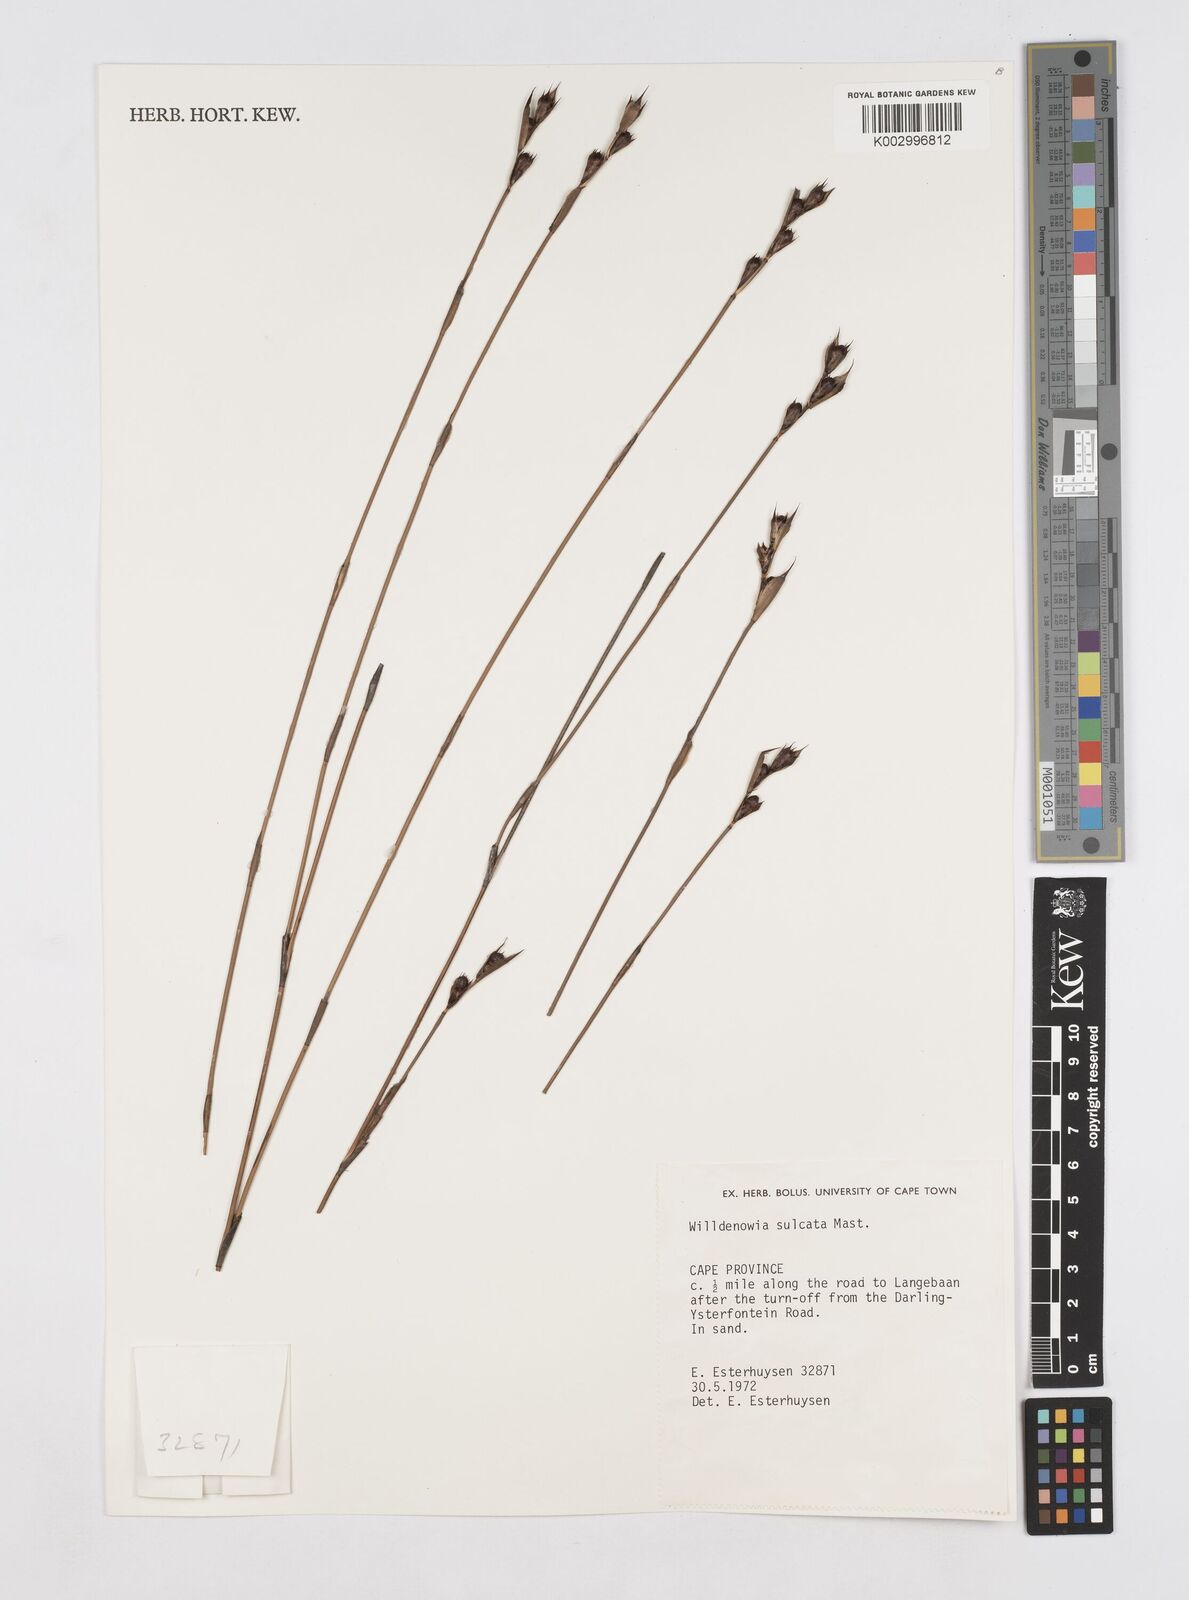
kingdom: Plantae
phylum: Tracheophyta
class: Liliopsida
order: Poales
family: Restionaceae
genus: Willdenowia
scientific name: Willdenowia sulcata
